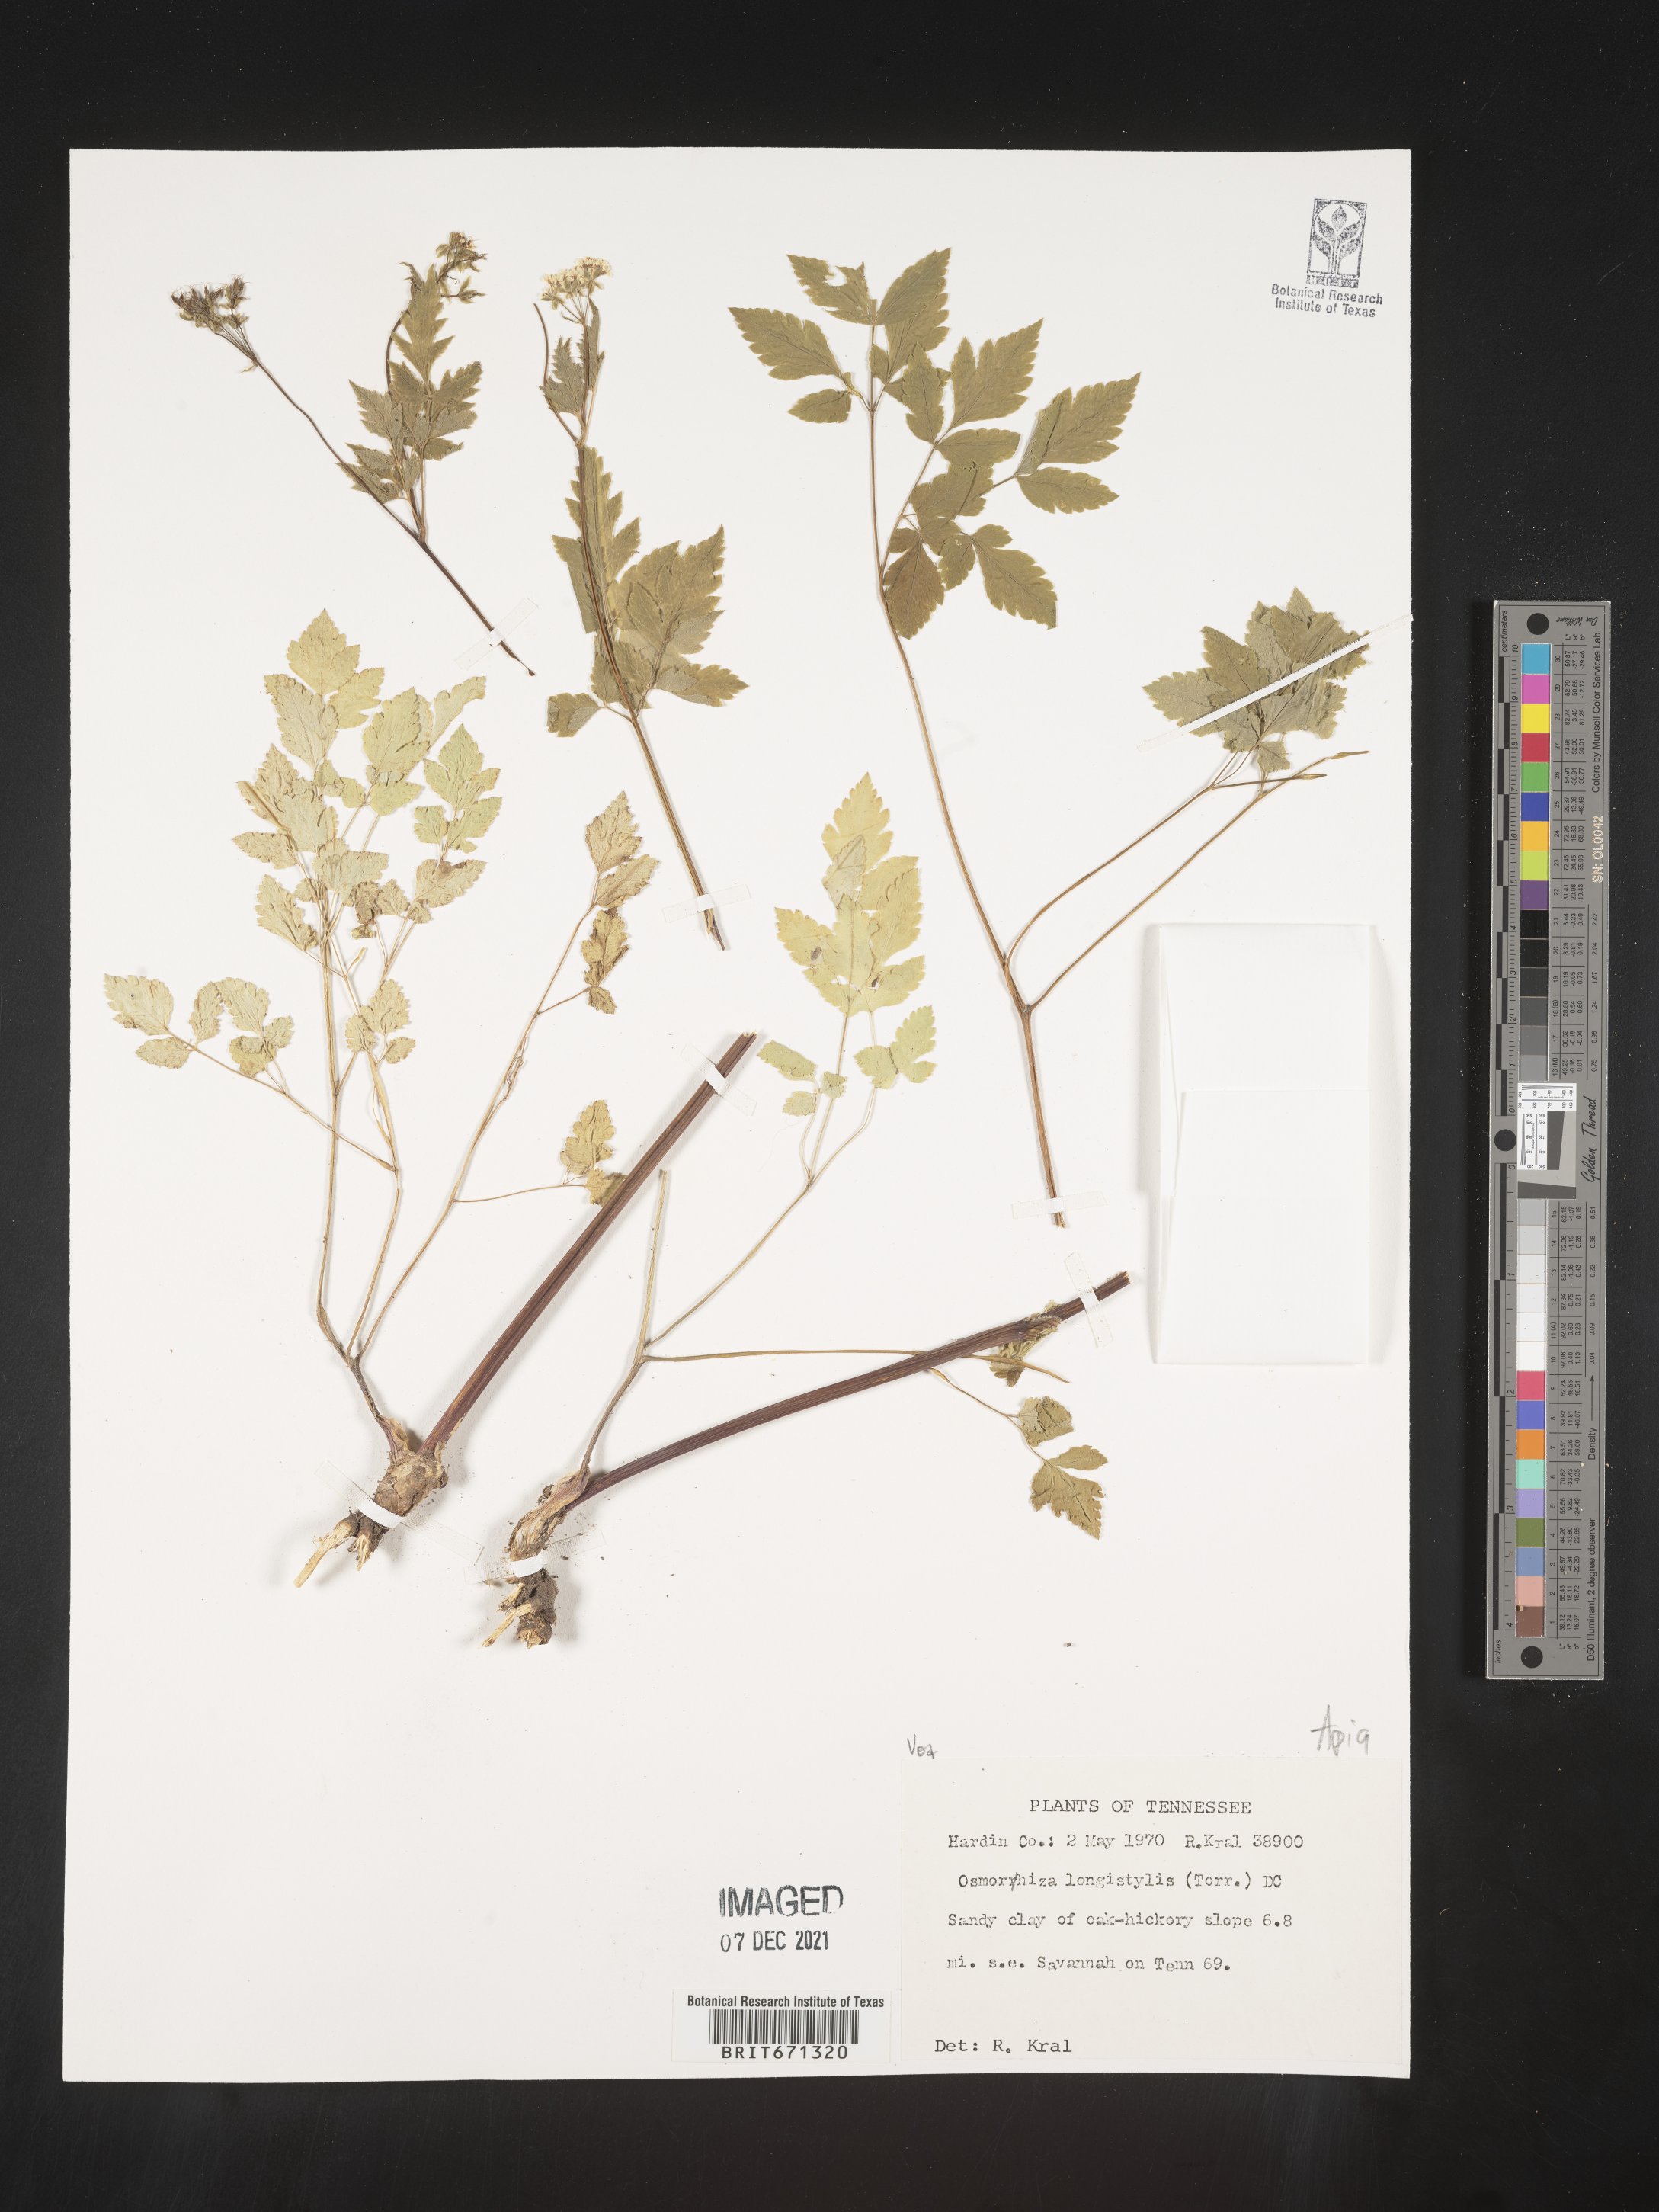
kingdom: Plantae
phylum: Tracheophyta
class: Magnoliopsida
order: Apiales
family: Apiaceae
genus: Osmorhiza
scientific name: Osmorhiza longistylis
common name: Smooth sweet cicely
